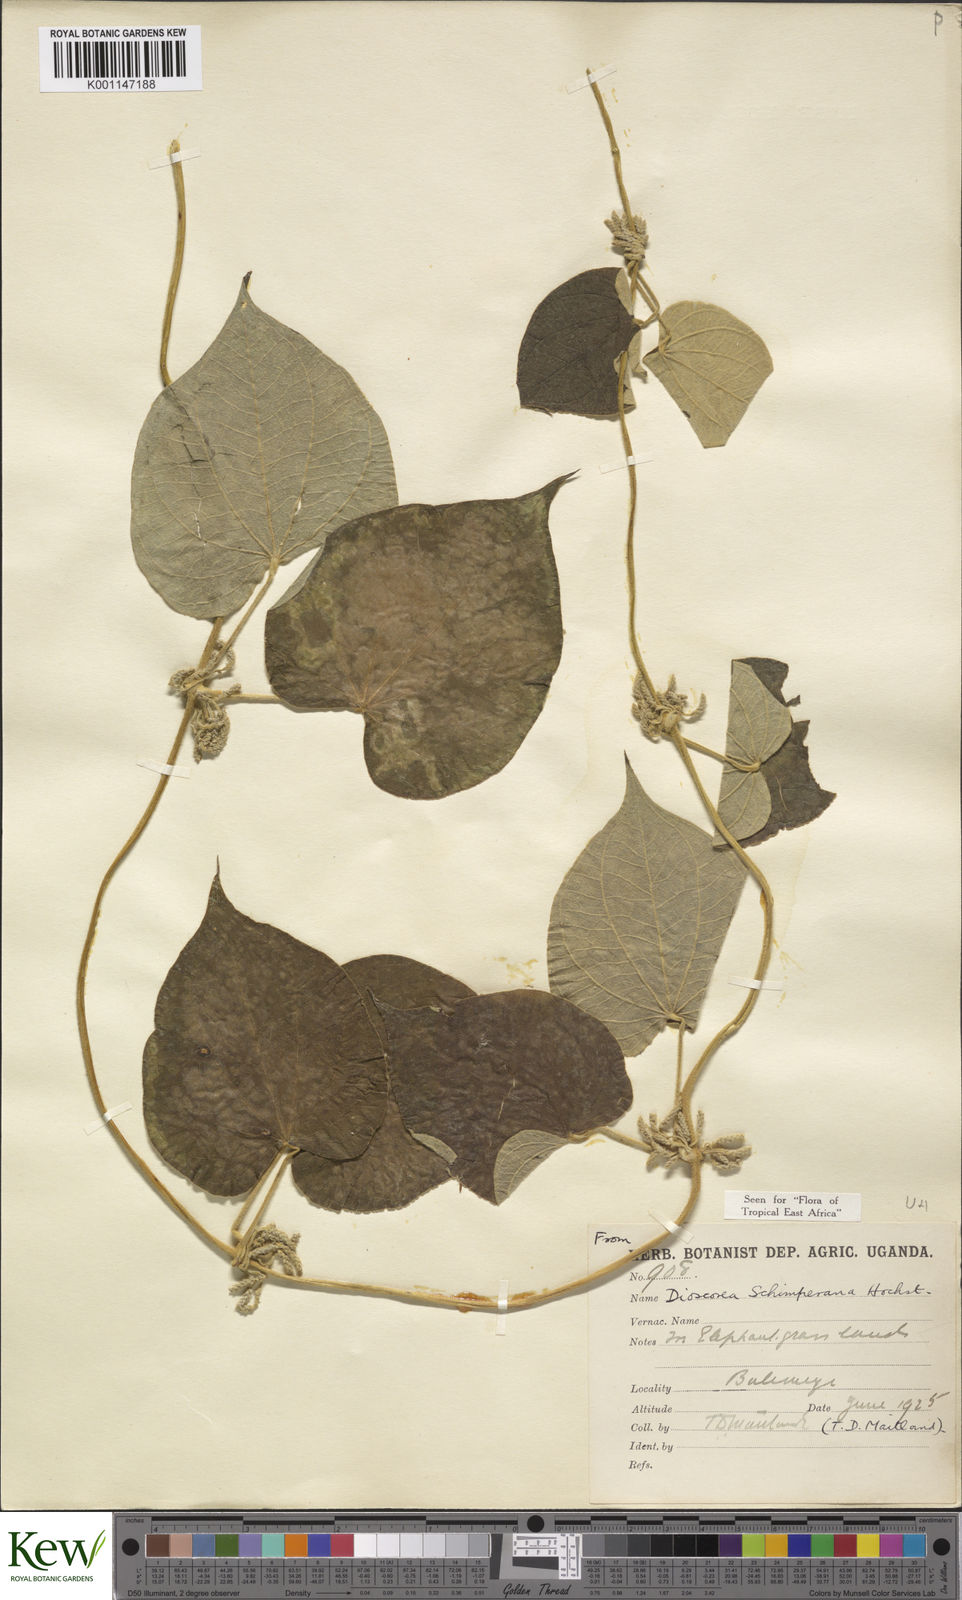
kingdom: Plantae
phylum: Tracheophyta
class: Magnoliopsida
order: Malpighiales
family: Salicaceae
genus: Casearia
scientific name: Casearia bicolor
